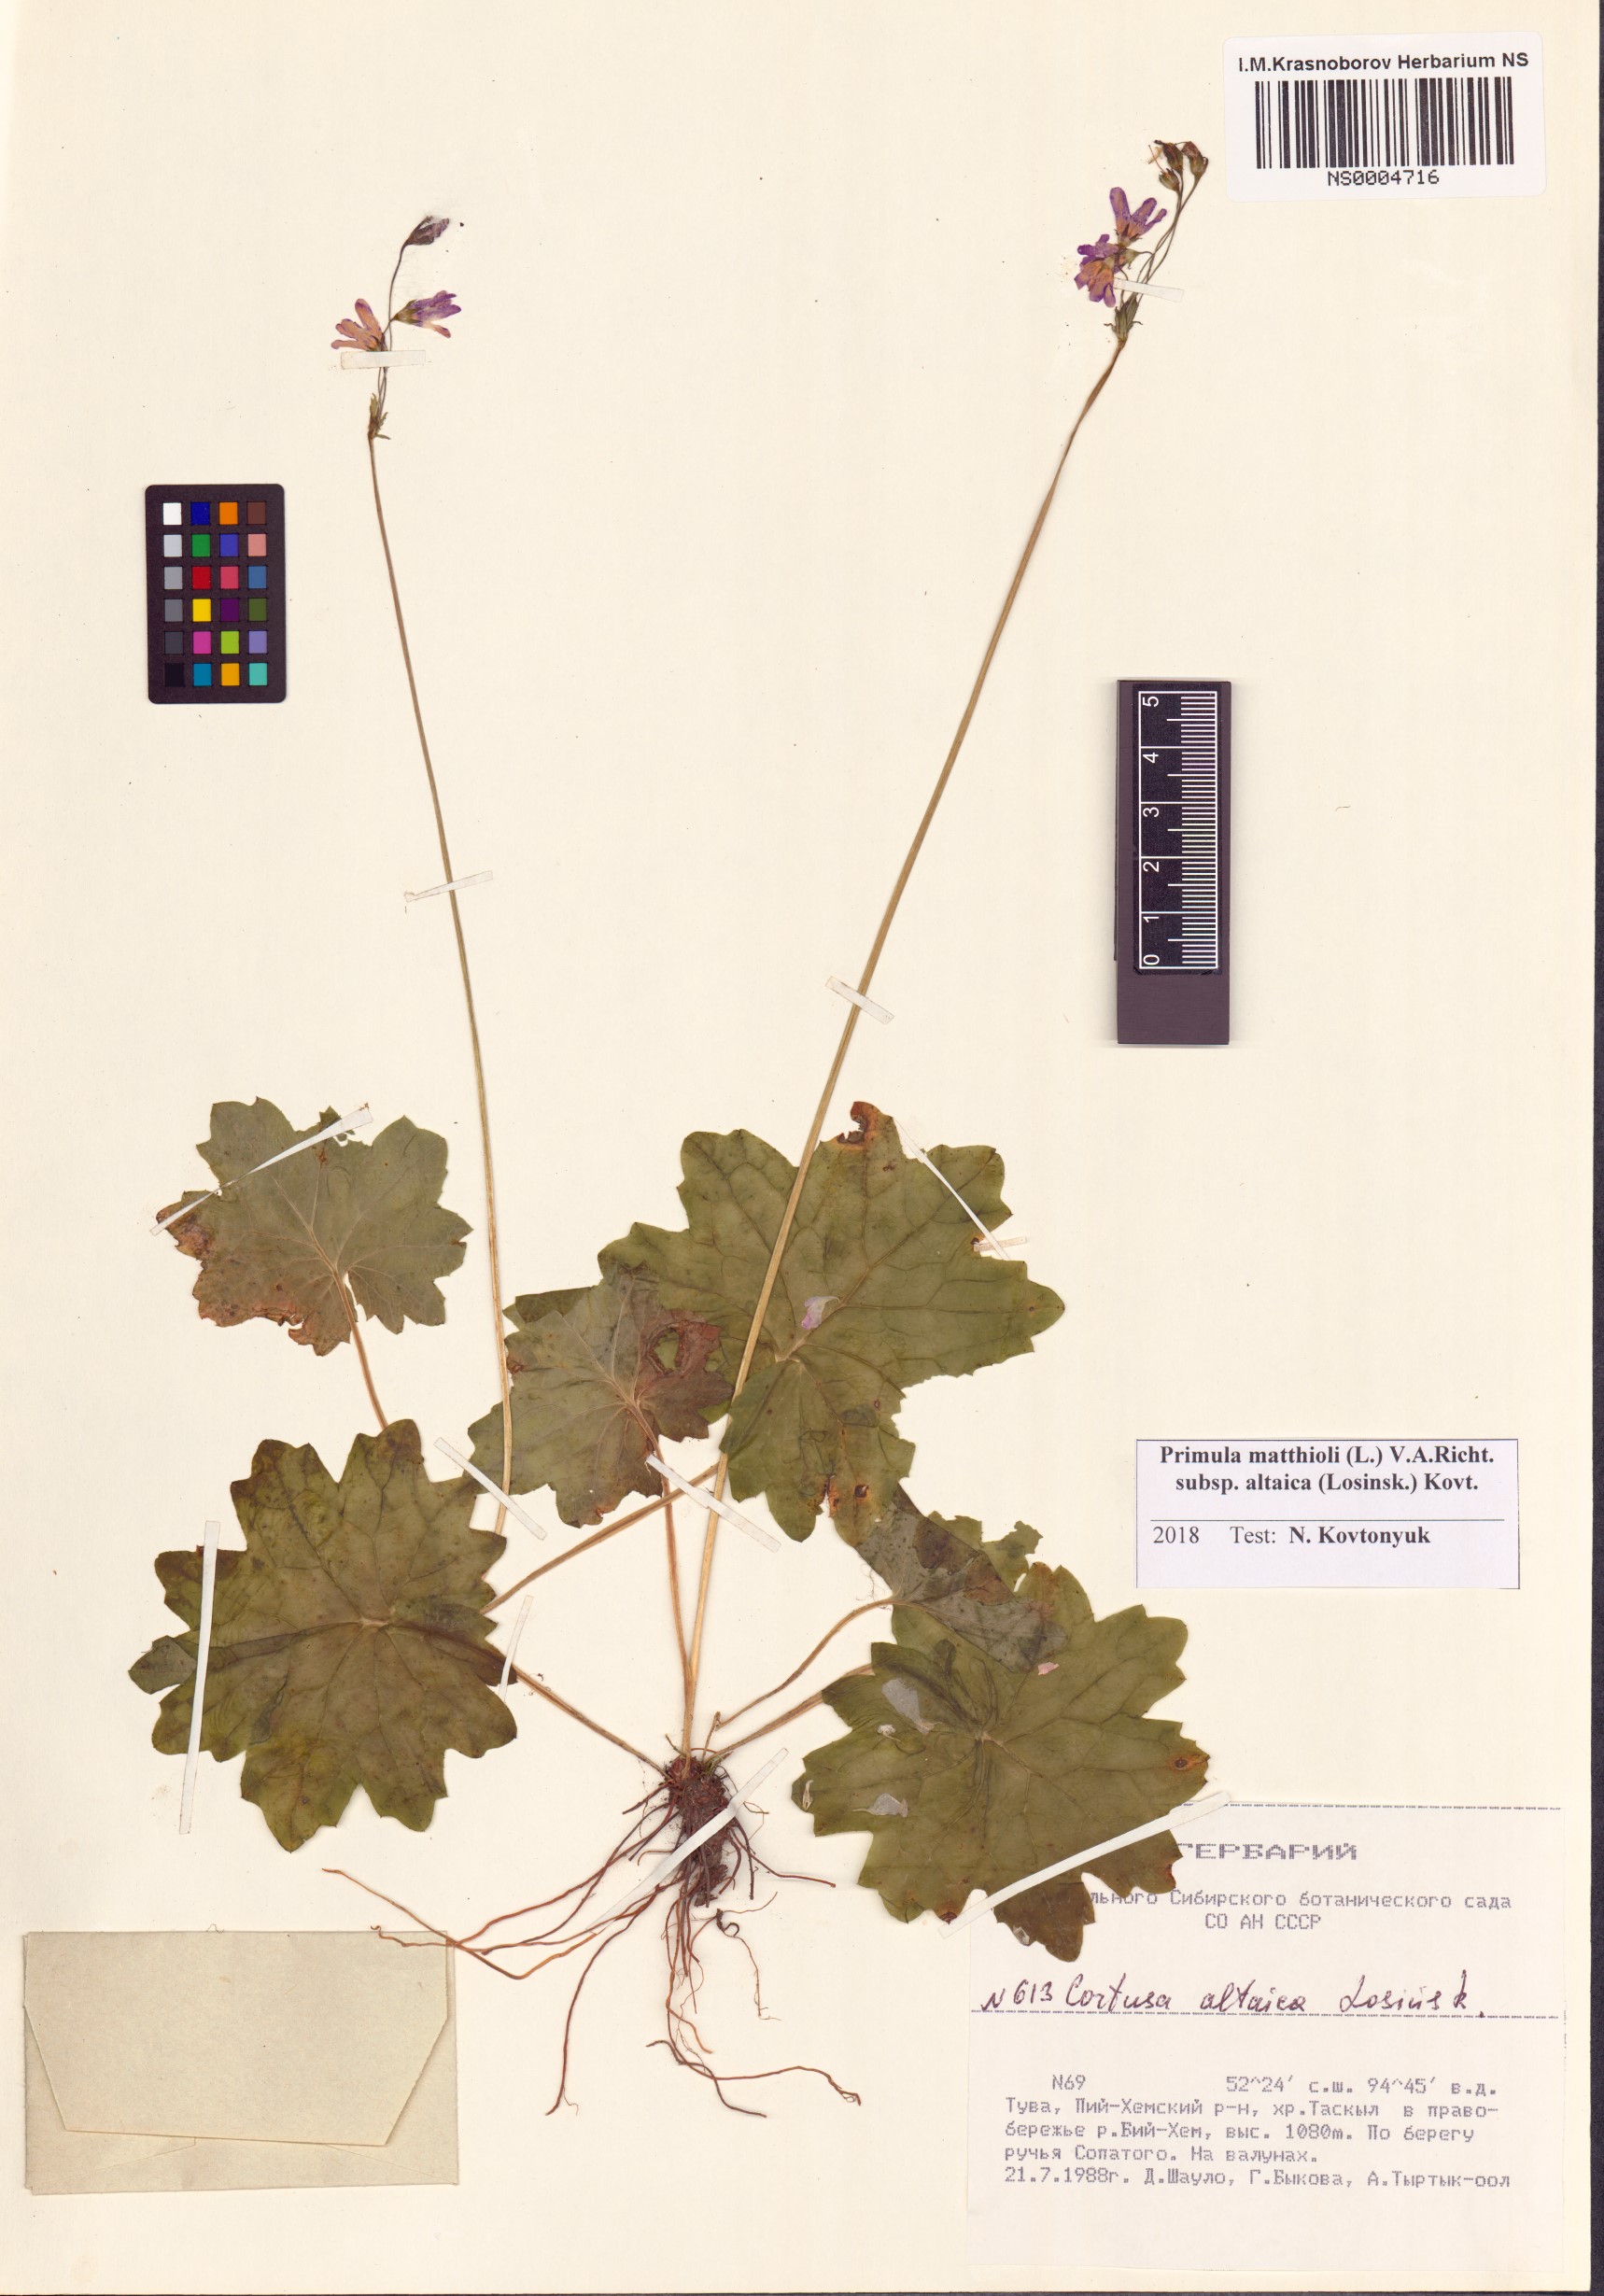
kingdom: Plantae
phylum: Tracheophyta
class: Magnoliopsida
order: Ericales
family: Primulaceae
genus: Primula
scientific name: Primula matthioli
